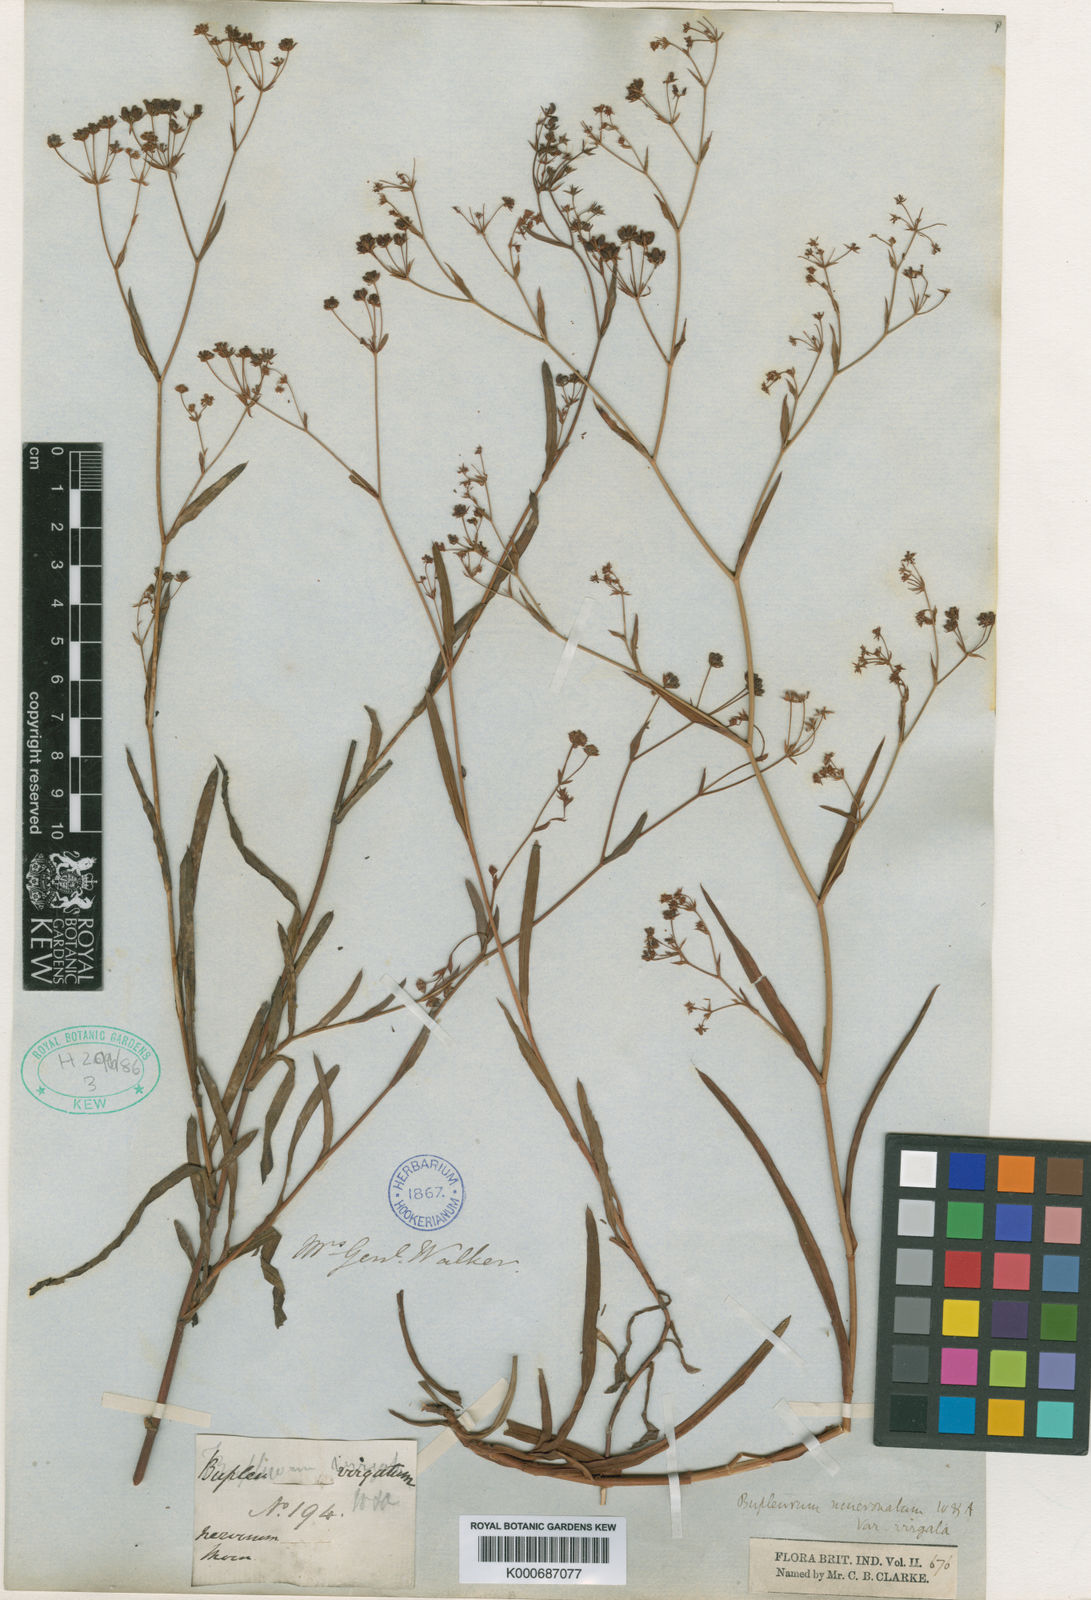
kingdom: Plantae
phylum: Tracheophyta
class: Magnoliopsida
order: Apiales
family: Apiaceae
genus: Bupleurum
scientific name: Bupleurum ramosissimum
